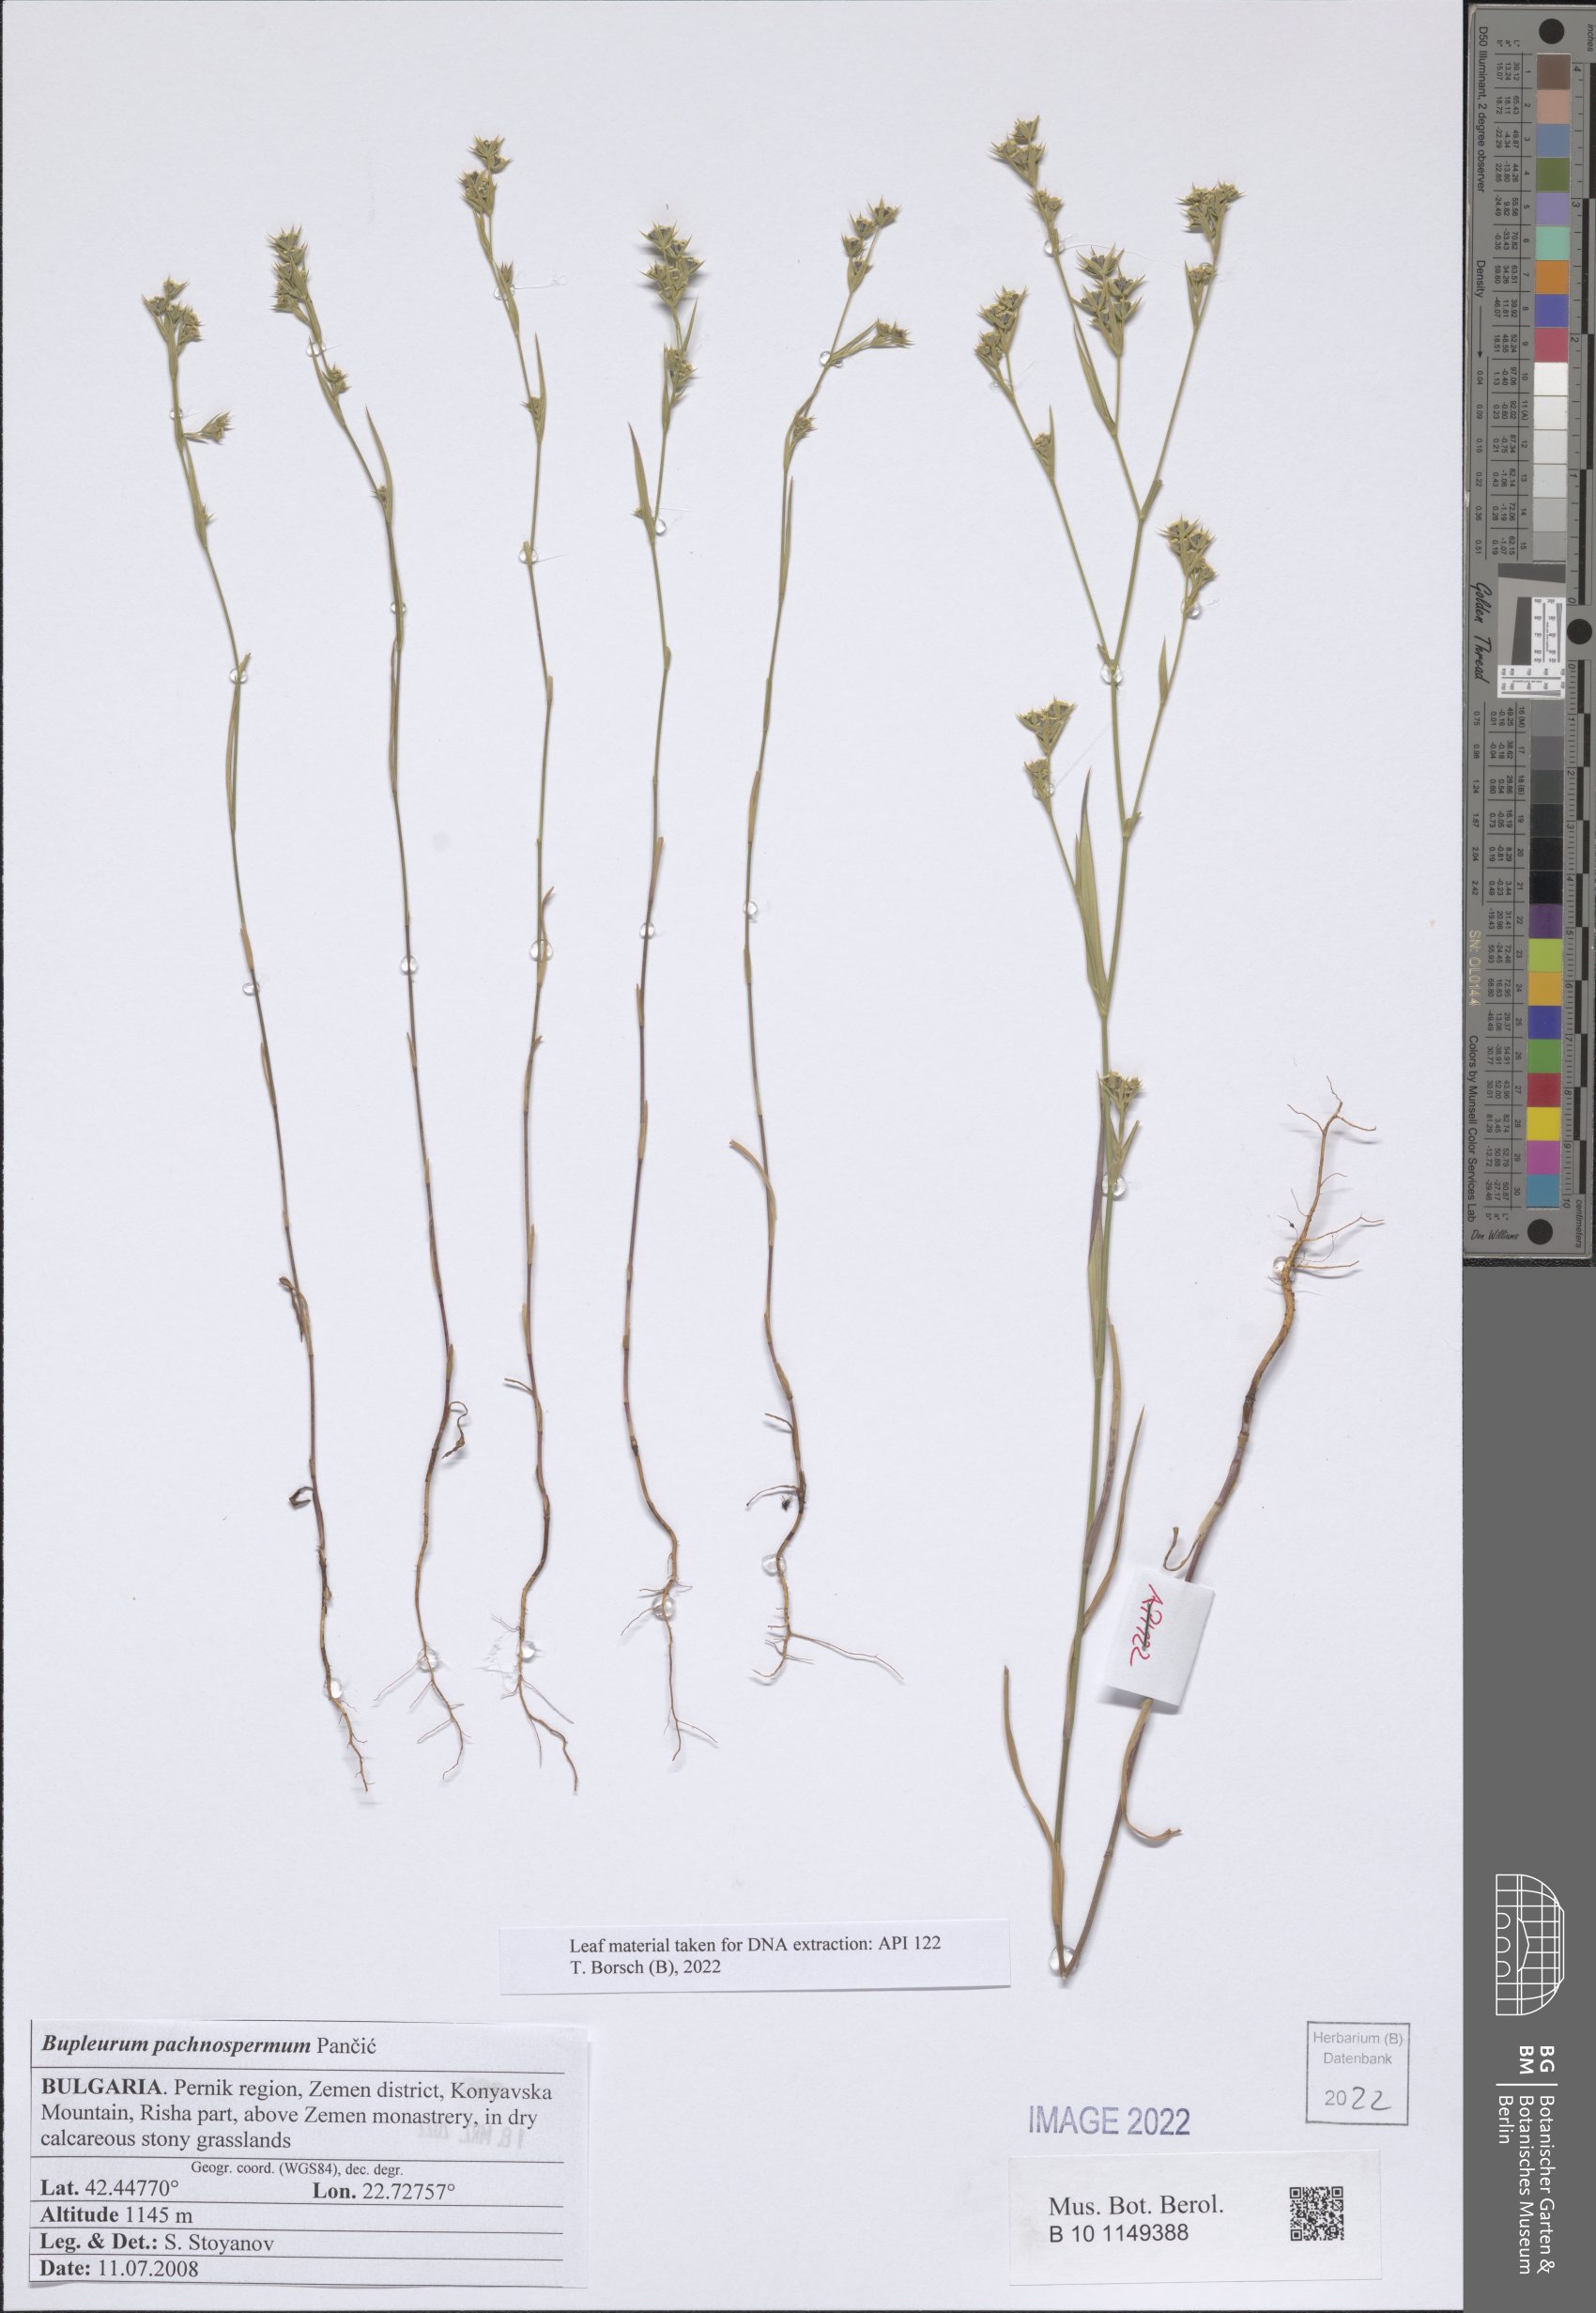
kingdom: Plantae
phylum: Tracheophyta
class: Magnoliopsida
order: Apiales
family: Apiaceae
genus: Bupleurum
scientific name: Bupleurum pachnospermum
